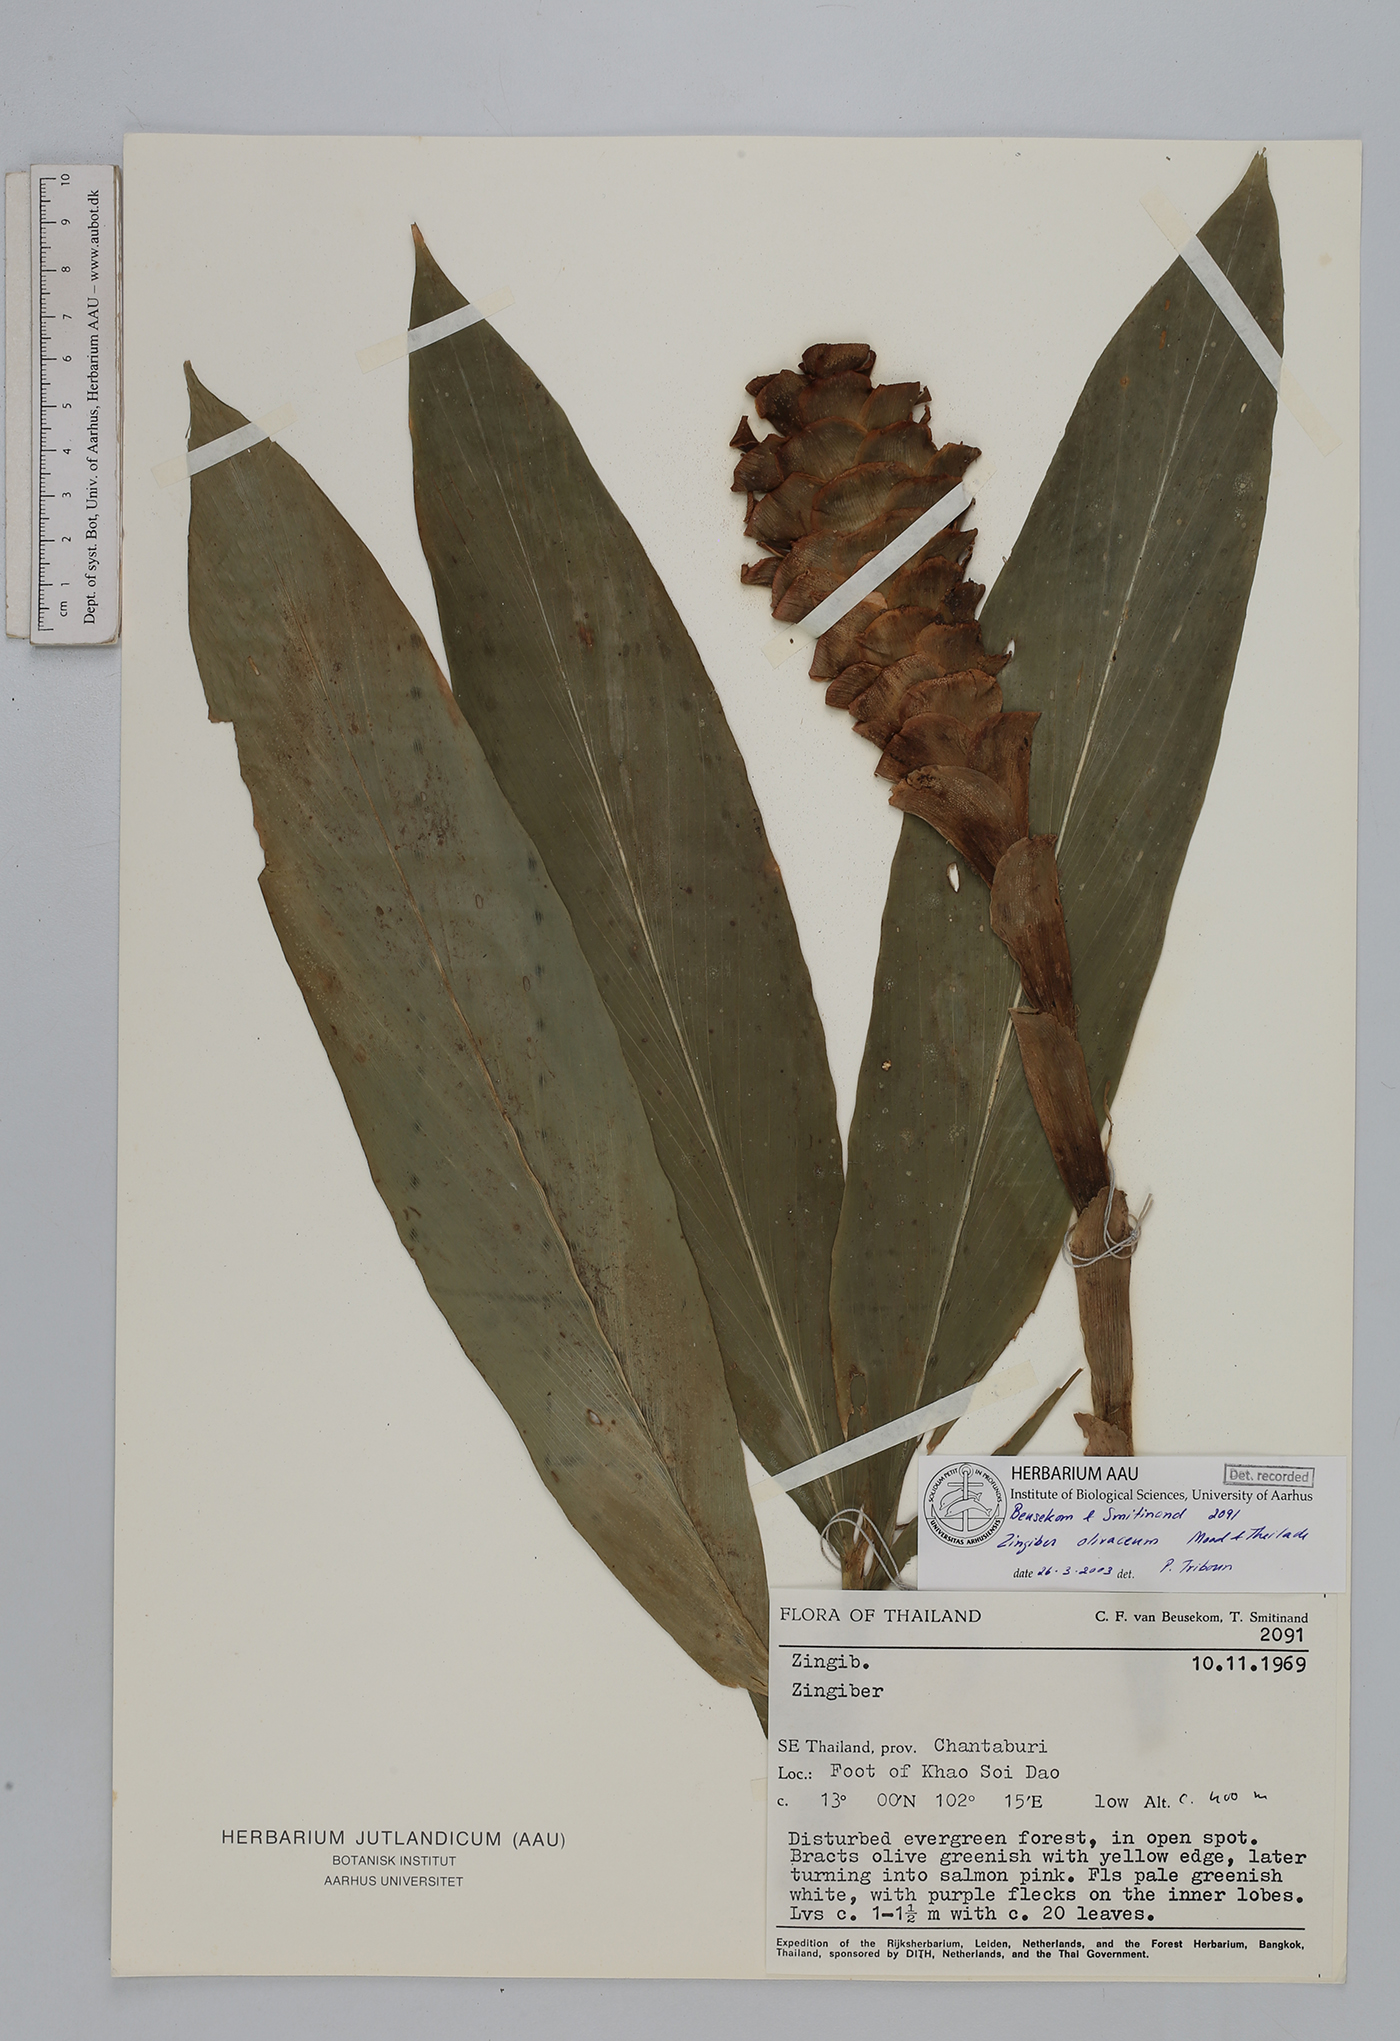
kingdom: Plantae
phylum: Tracheophyta
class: Liliopsida
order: Zingiberales
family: Zingiberaceae
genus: Zingiber
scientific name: Zingiber olivaceum
